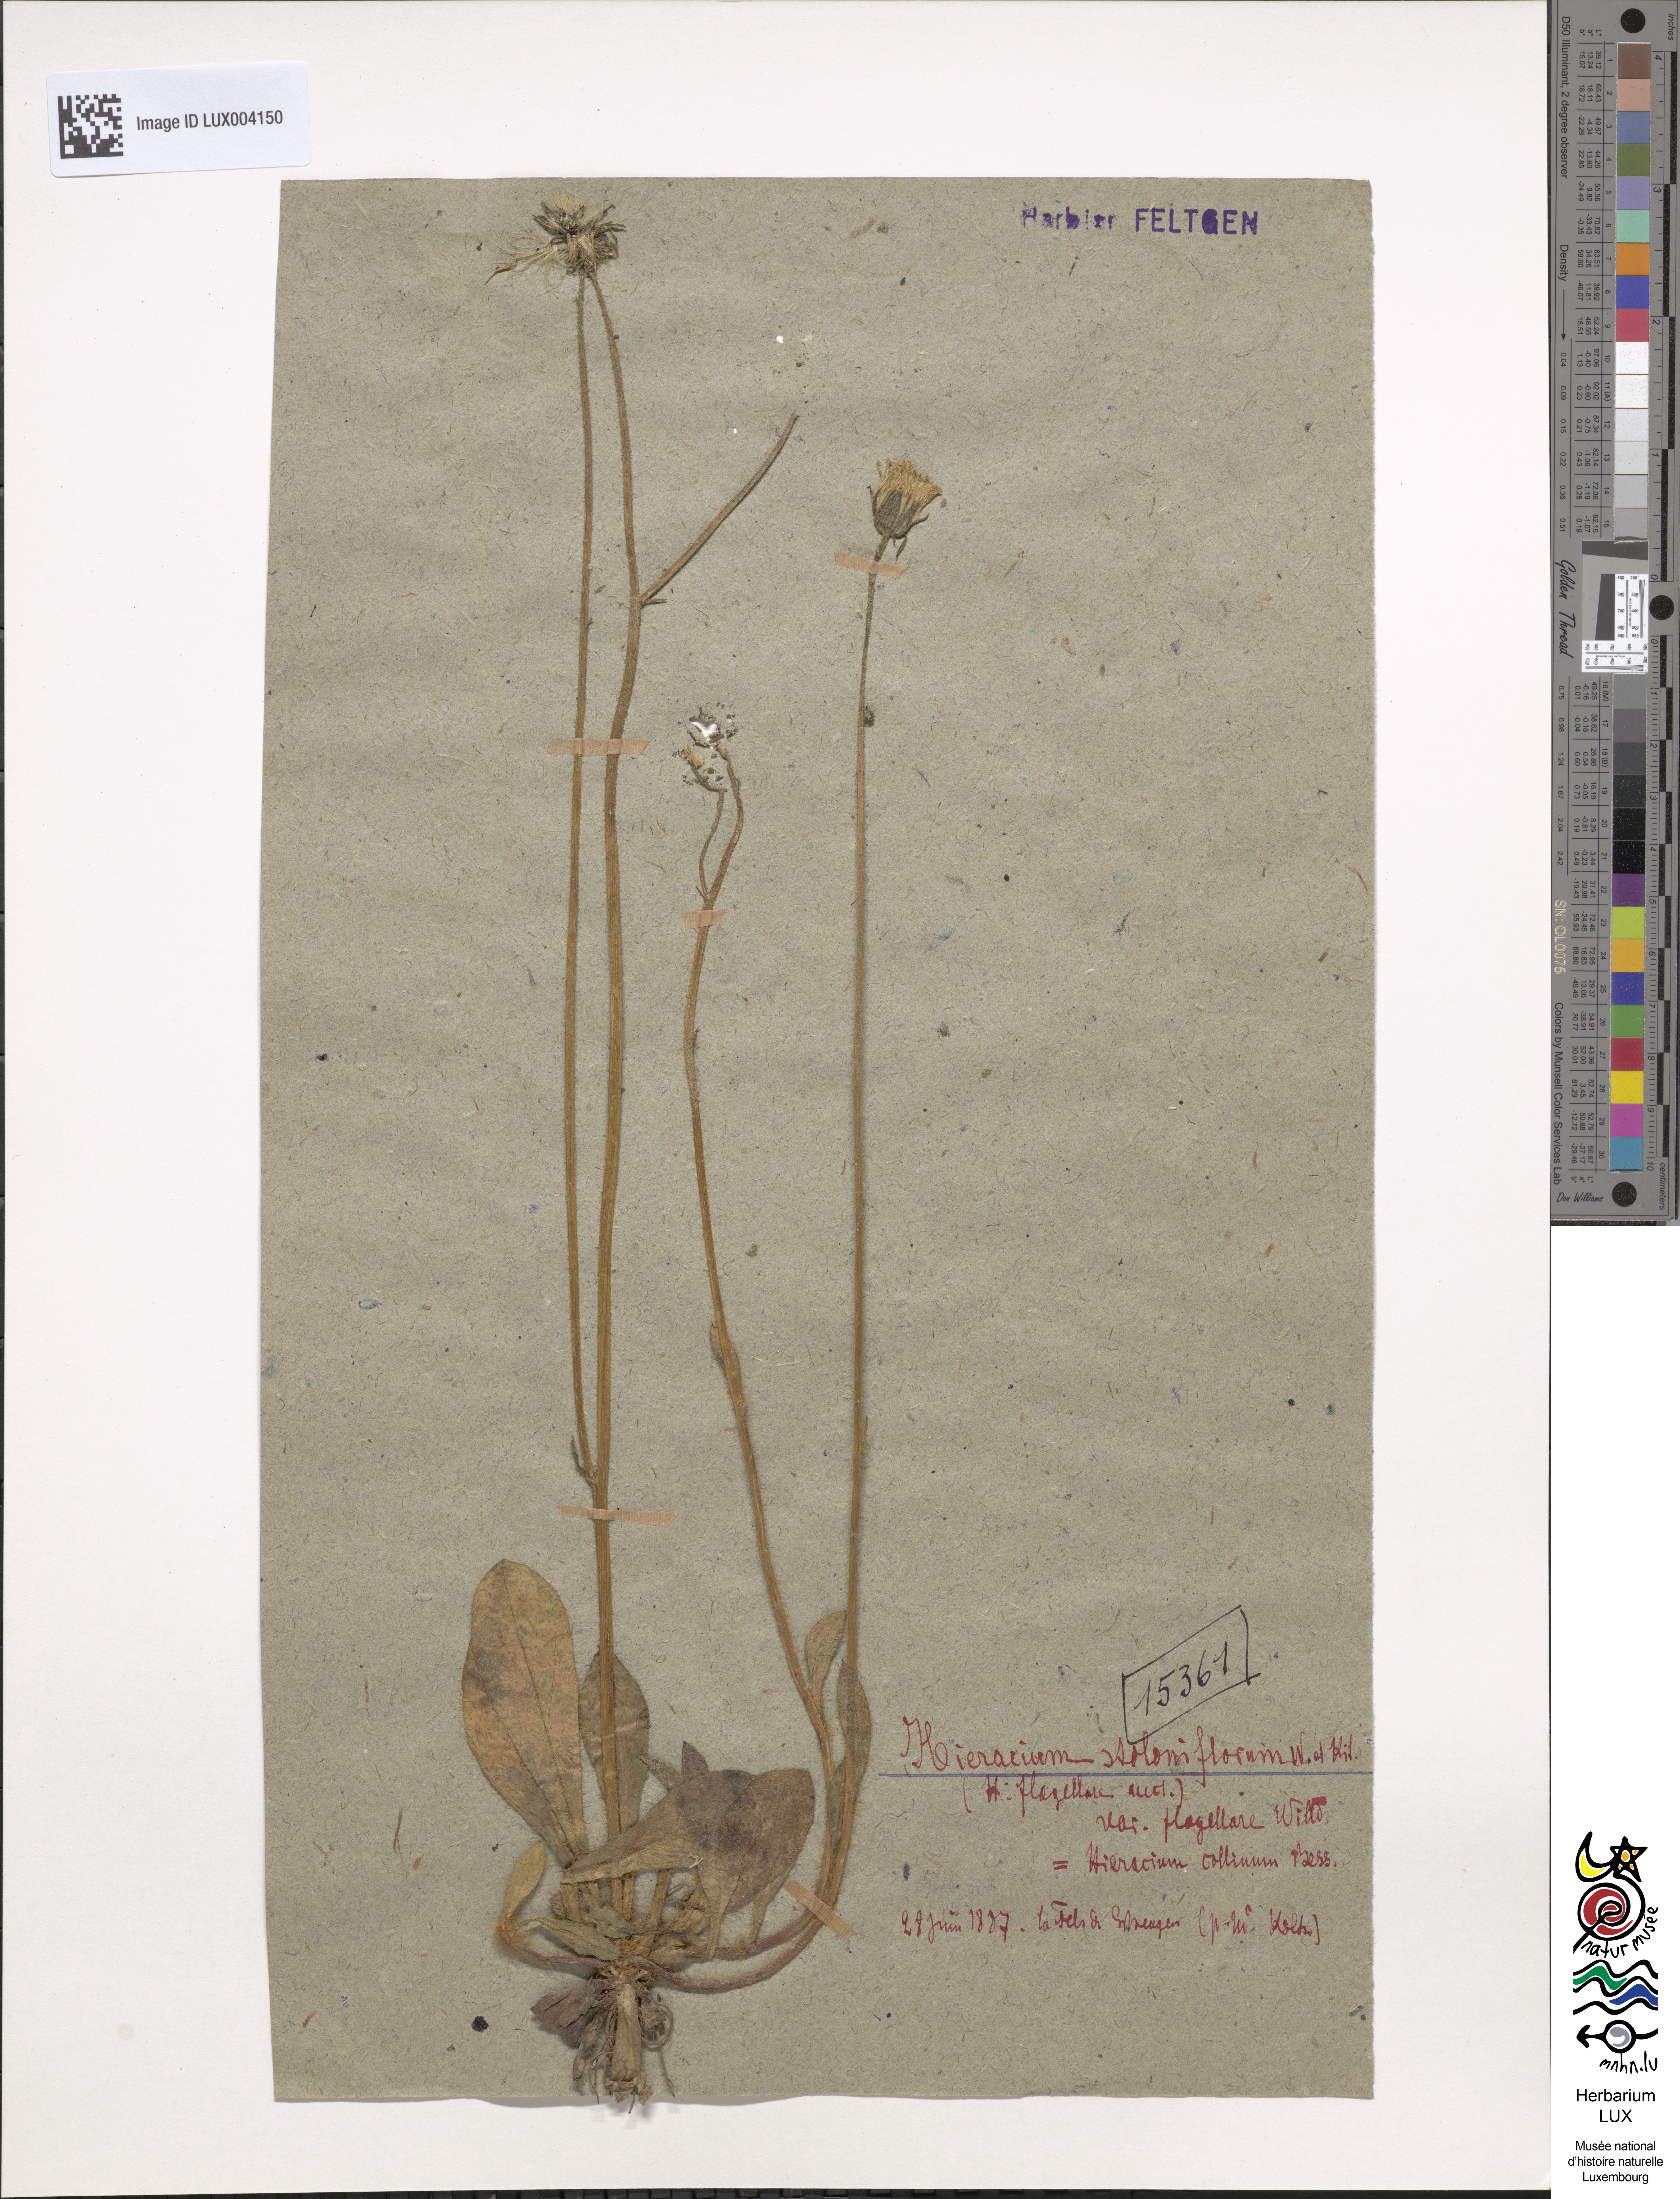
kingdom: Plantae
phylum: Tracheophyta
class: Magnoliopsida
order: Asterales
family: Asteraceae
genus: Hieracium
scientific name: Hieracium stoloniflorum
